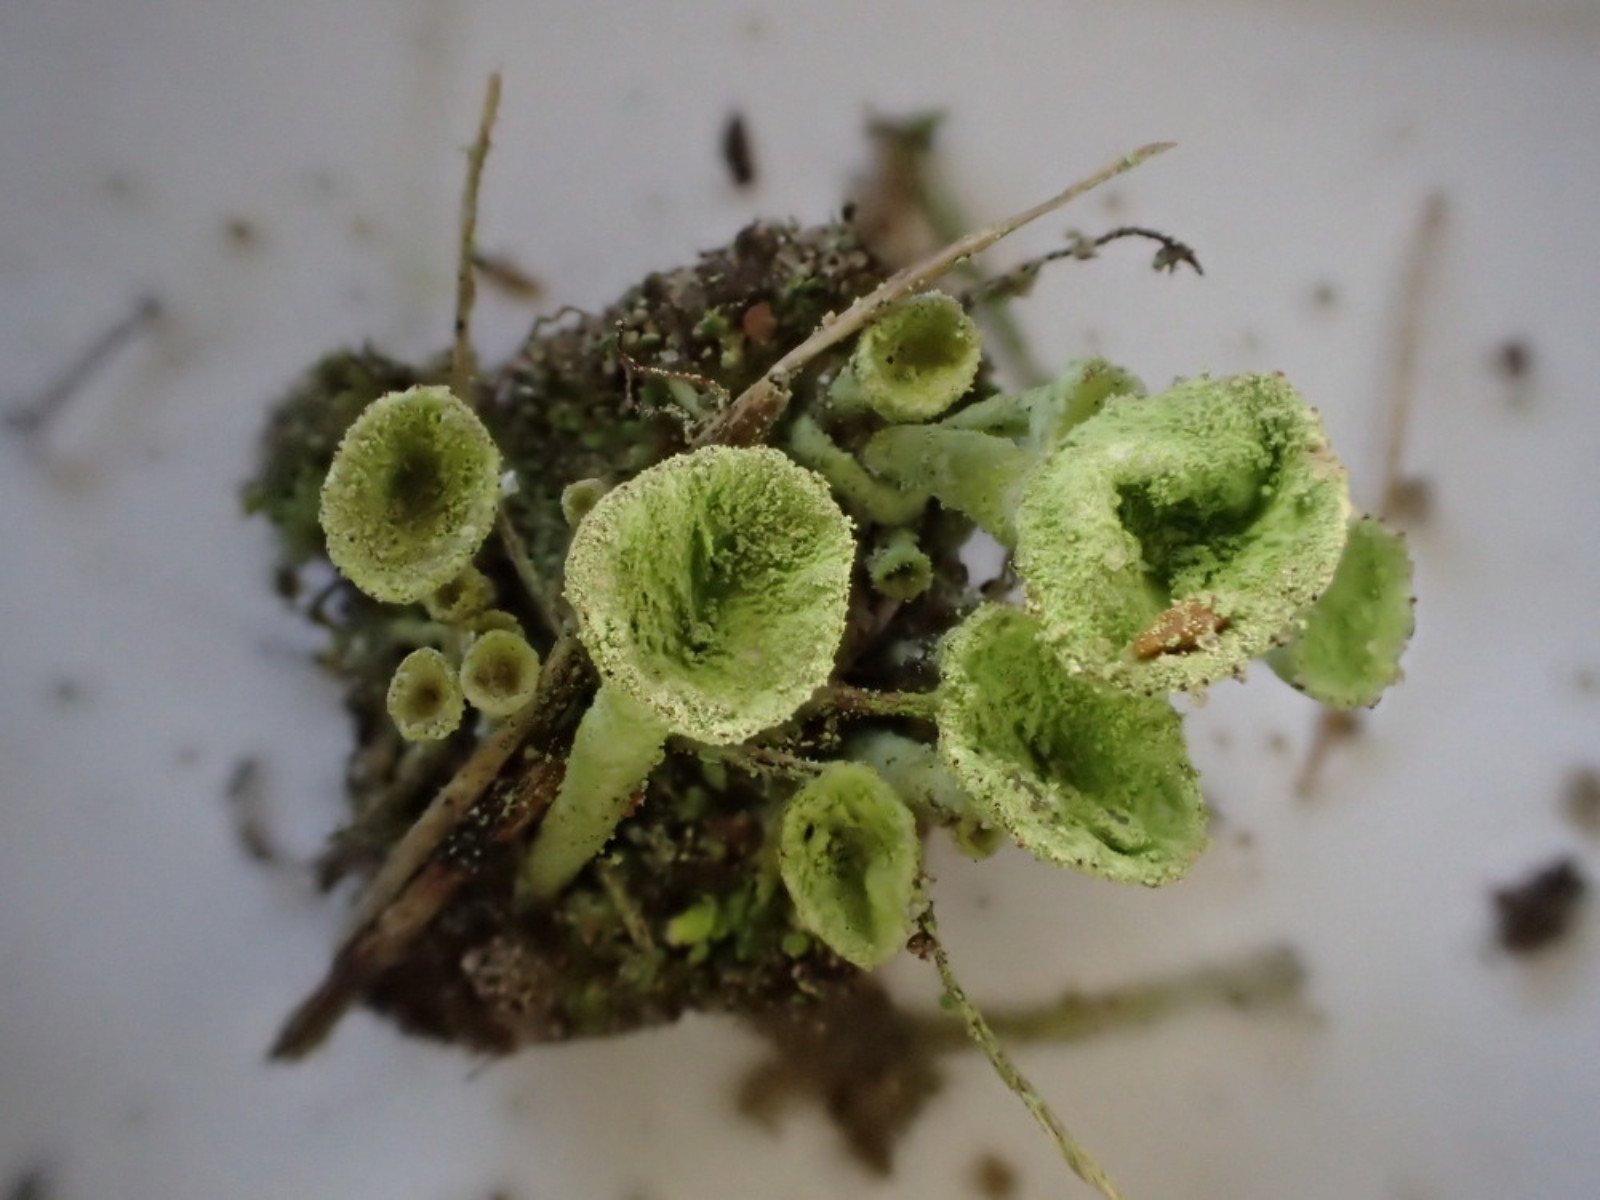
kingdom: Fungi
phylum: Ascomycota
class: Lecanoromycetes
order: Lecanorales
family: Cladoniaceae
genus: Cladonia
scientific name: Cladonia fimbriata
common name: bleggrøn bægerlav
